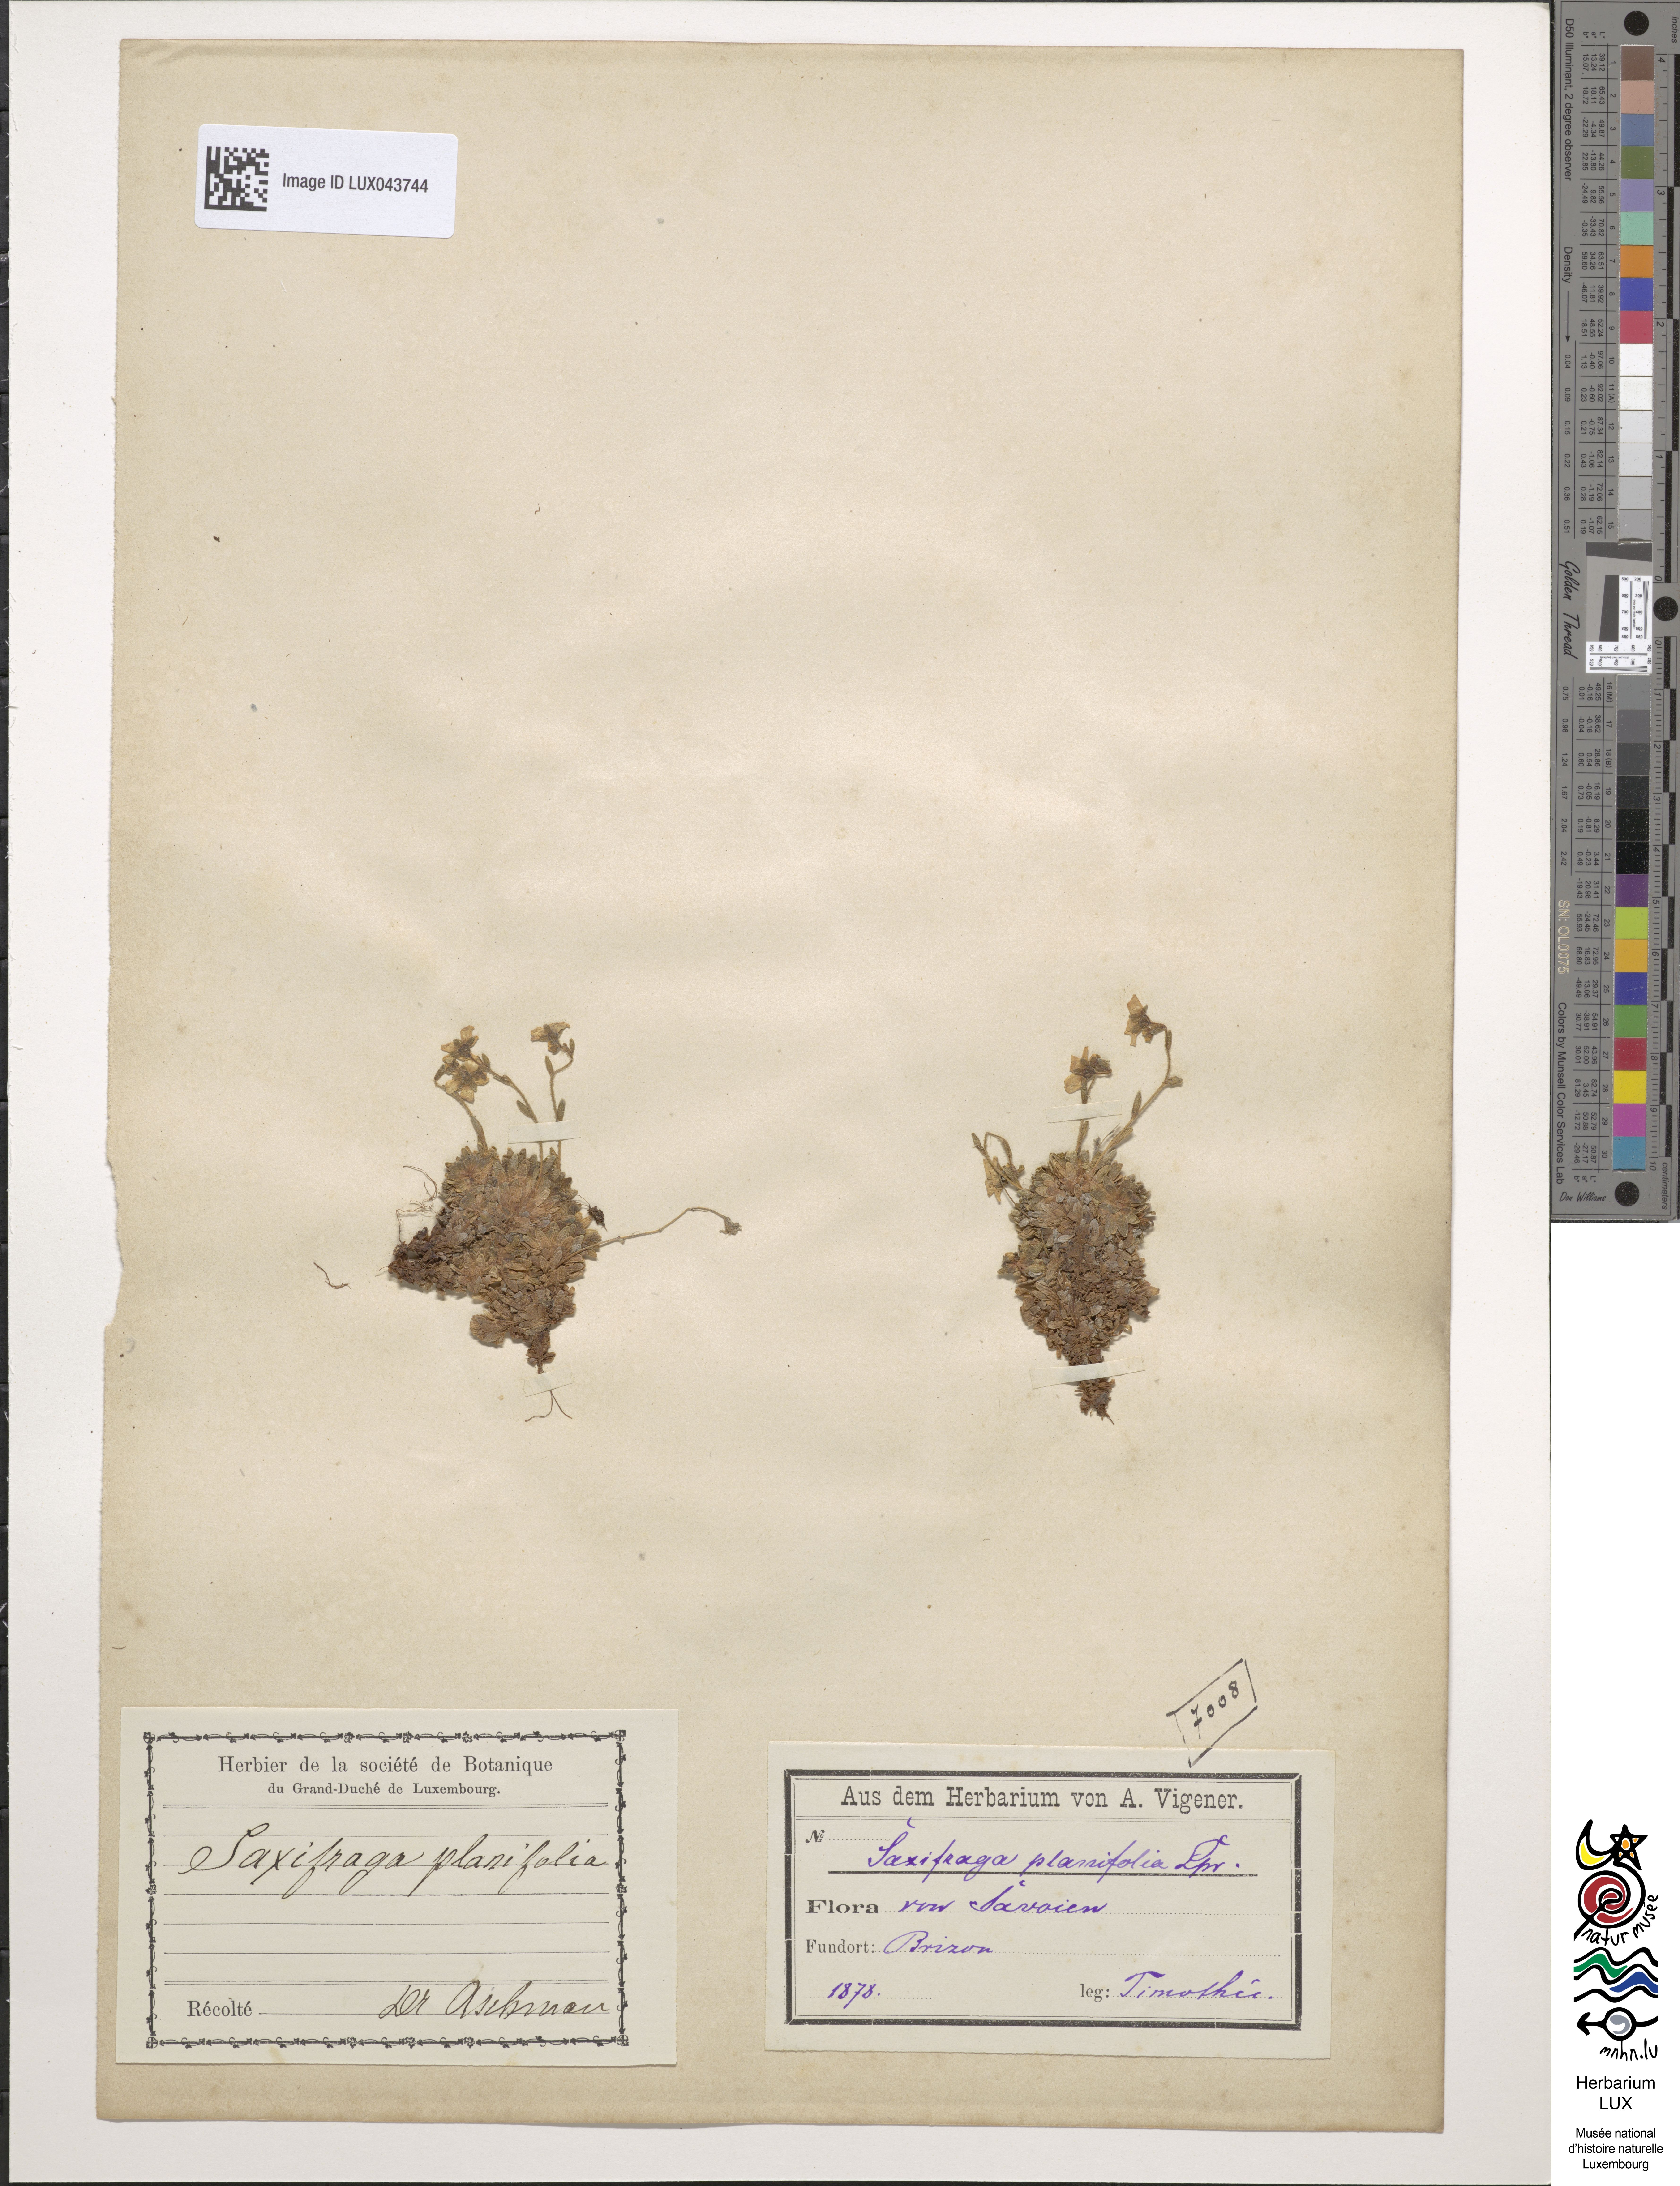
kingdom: Plantae
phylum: Tracheophyta
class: Magnoliopsida
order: Saxifragales
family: Saxifragaceae
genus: Saxifraga
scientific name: Saxifraga muscoides
